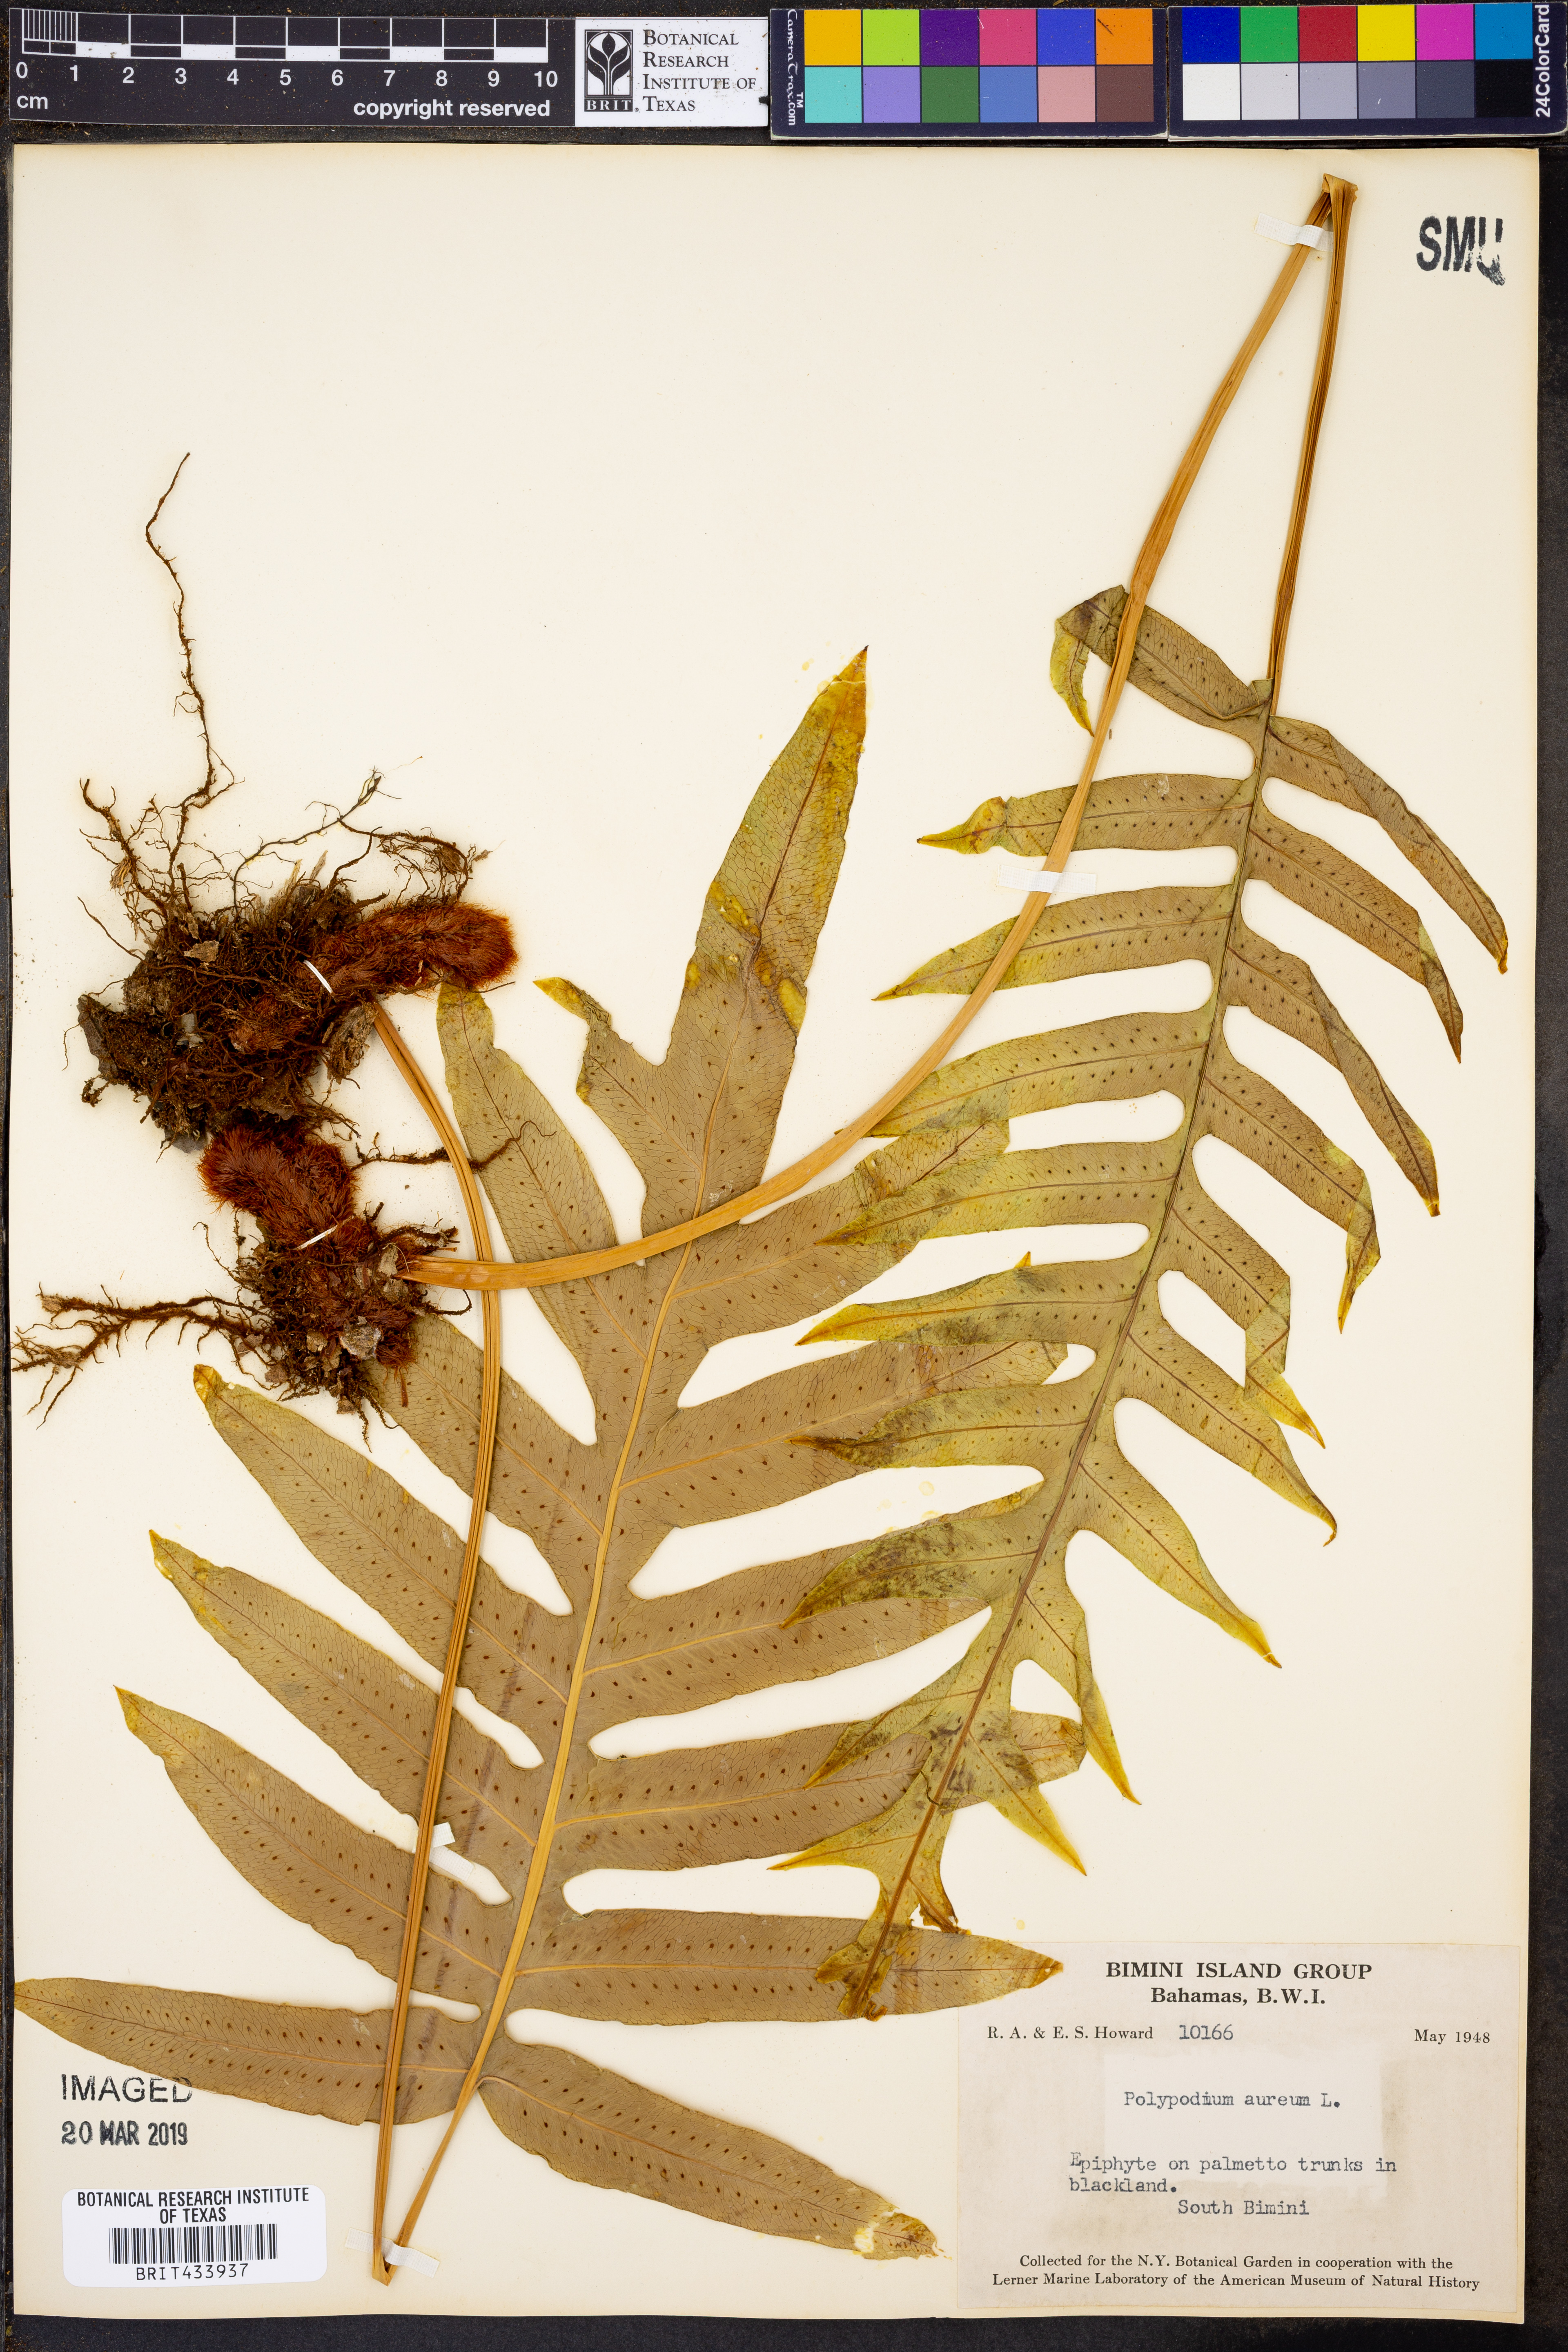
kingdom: Plantae
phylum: Tracheophyta
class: Polypodiopsida
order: Polypodiales
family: Polypodiaceae
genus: Phlebodium
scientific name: Phlebodium aureum
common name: Gold-foot fern
